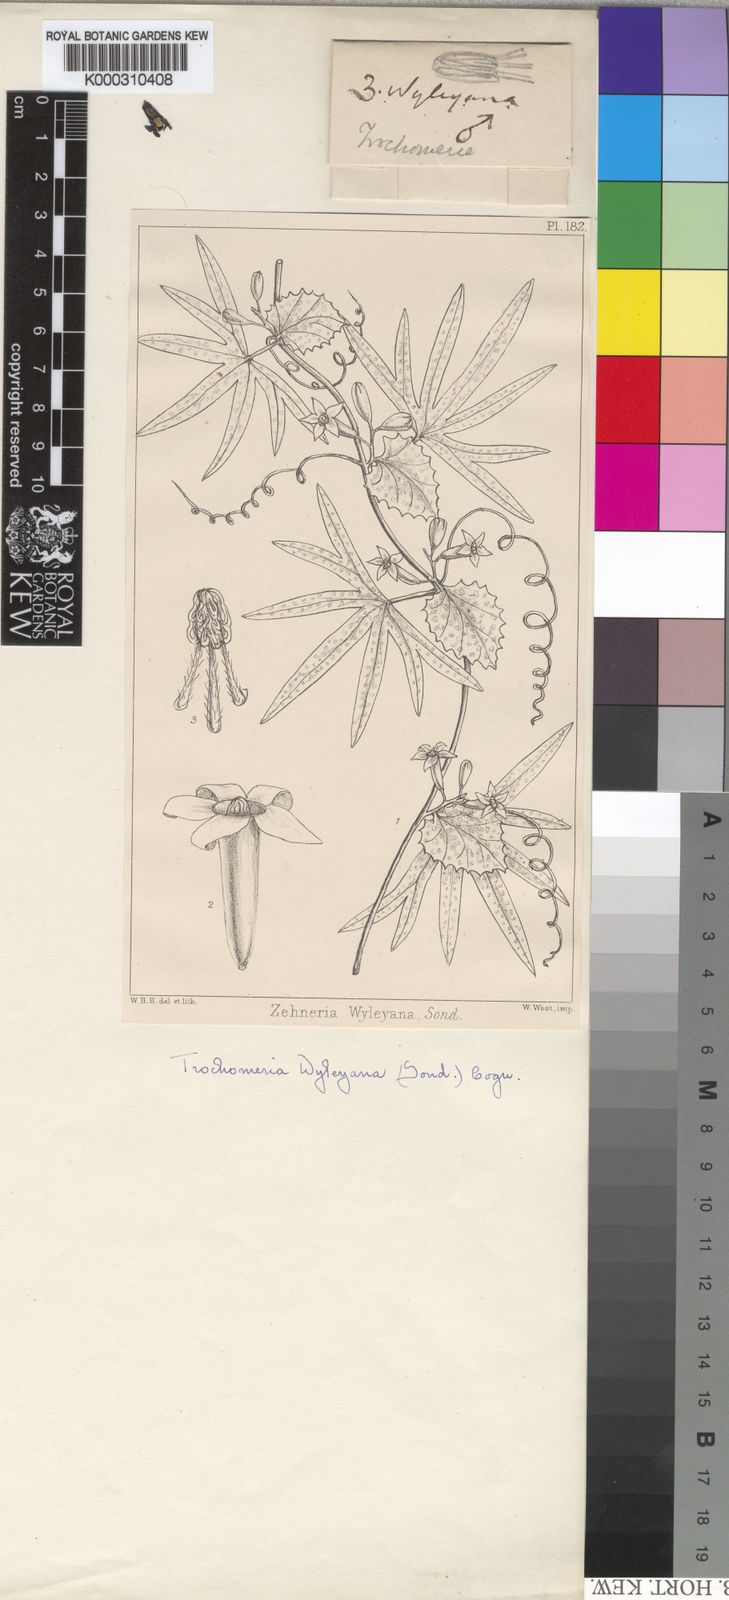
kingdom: Plantae
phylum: Tracheophyta
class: Magnoliopsida
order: Cucurbitales
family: Cucurbitaceae
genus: Trochomeria
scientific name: Trochomeria debilis
